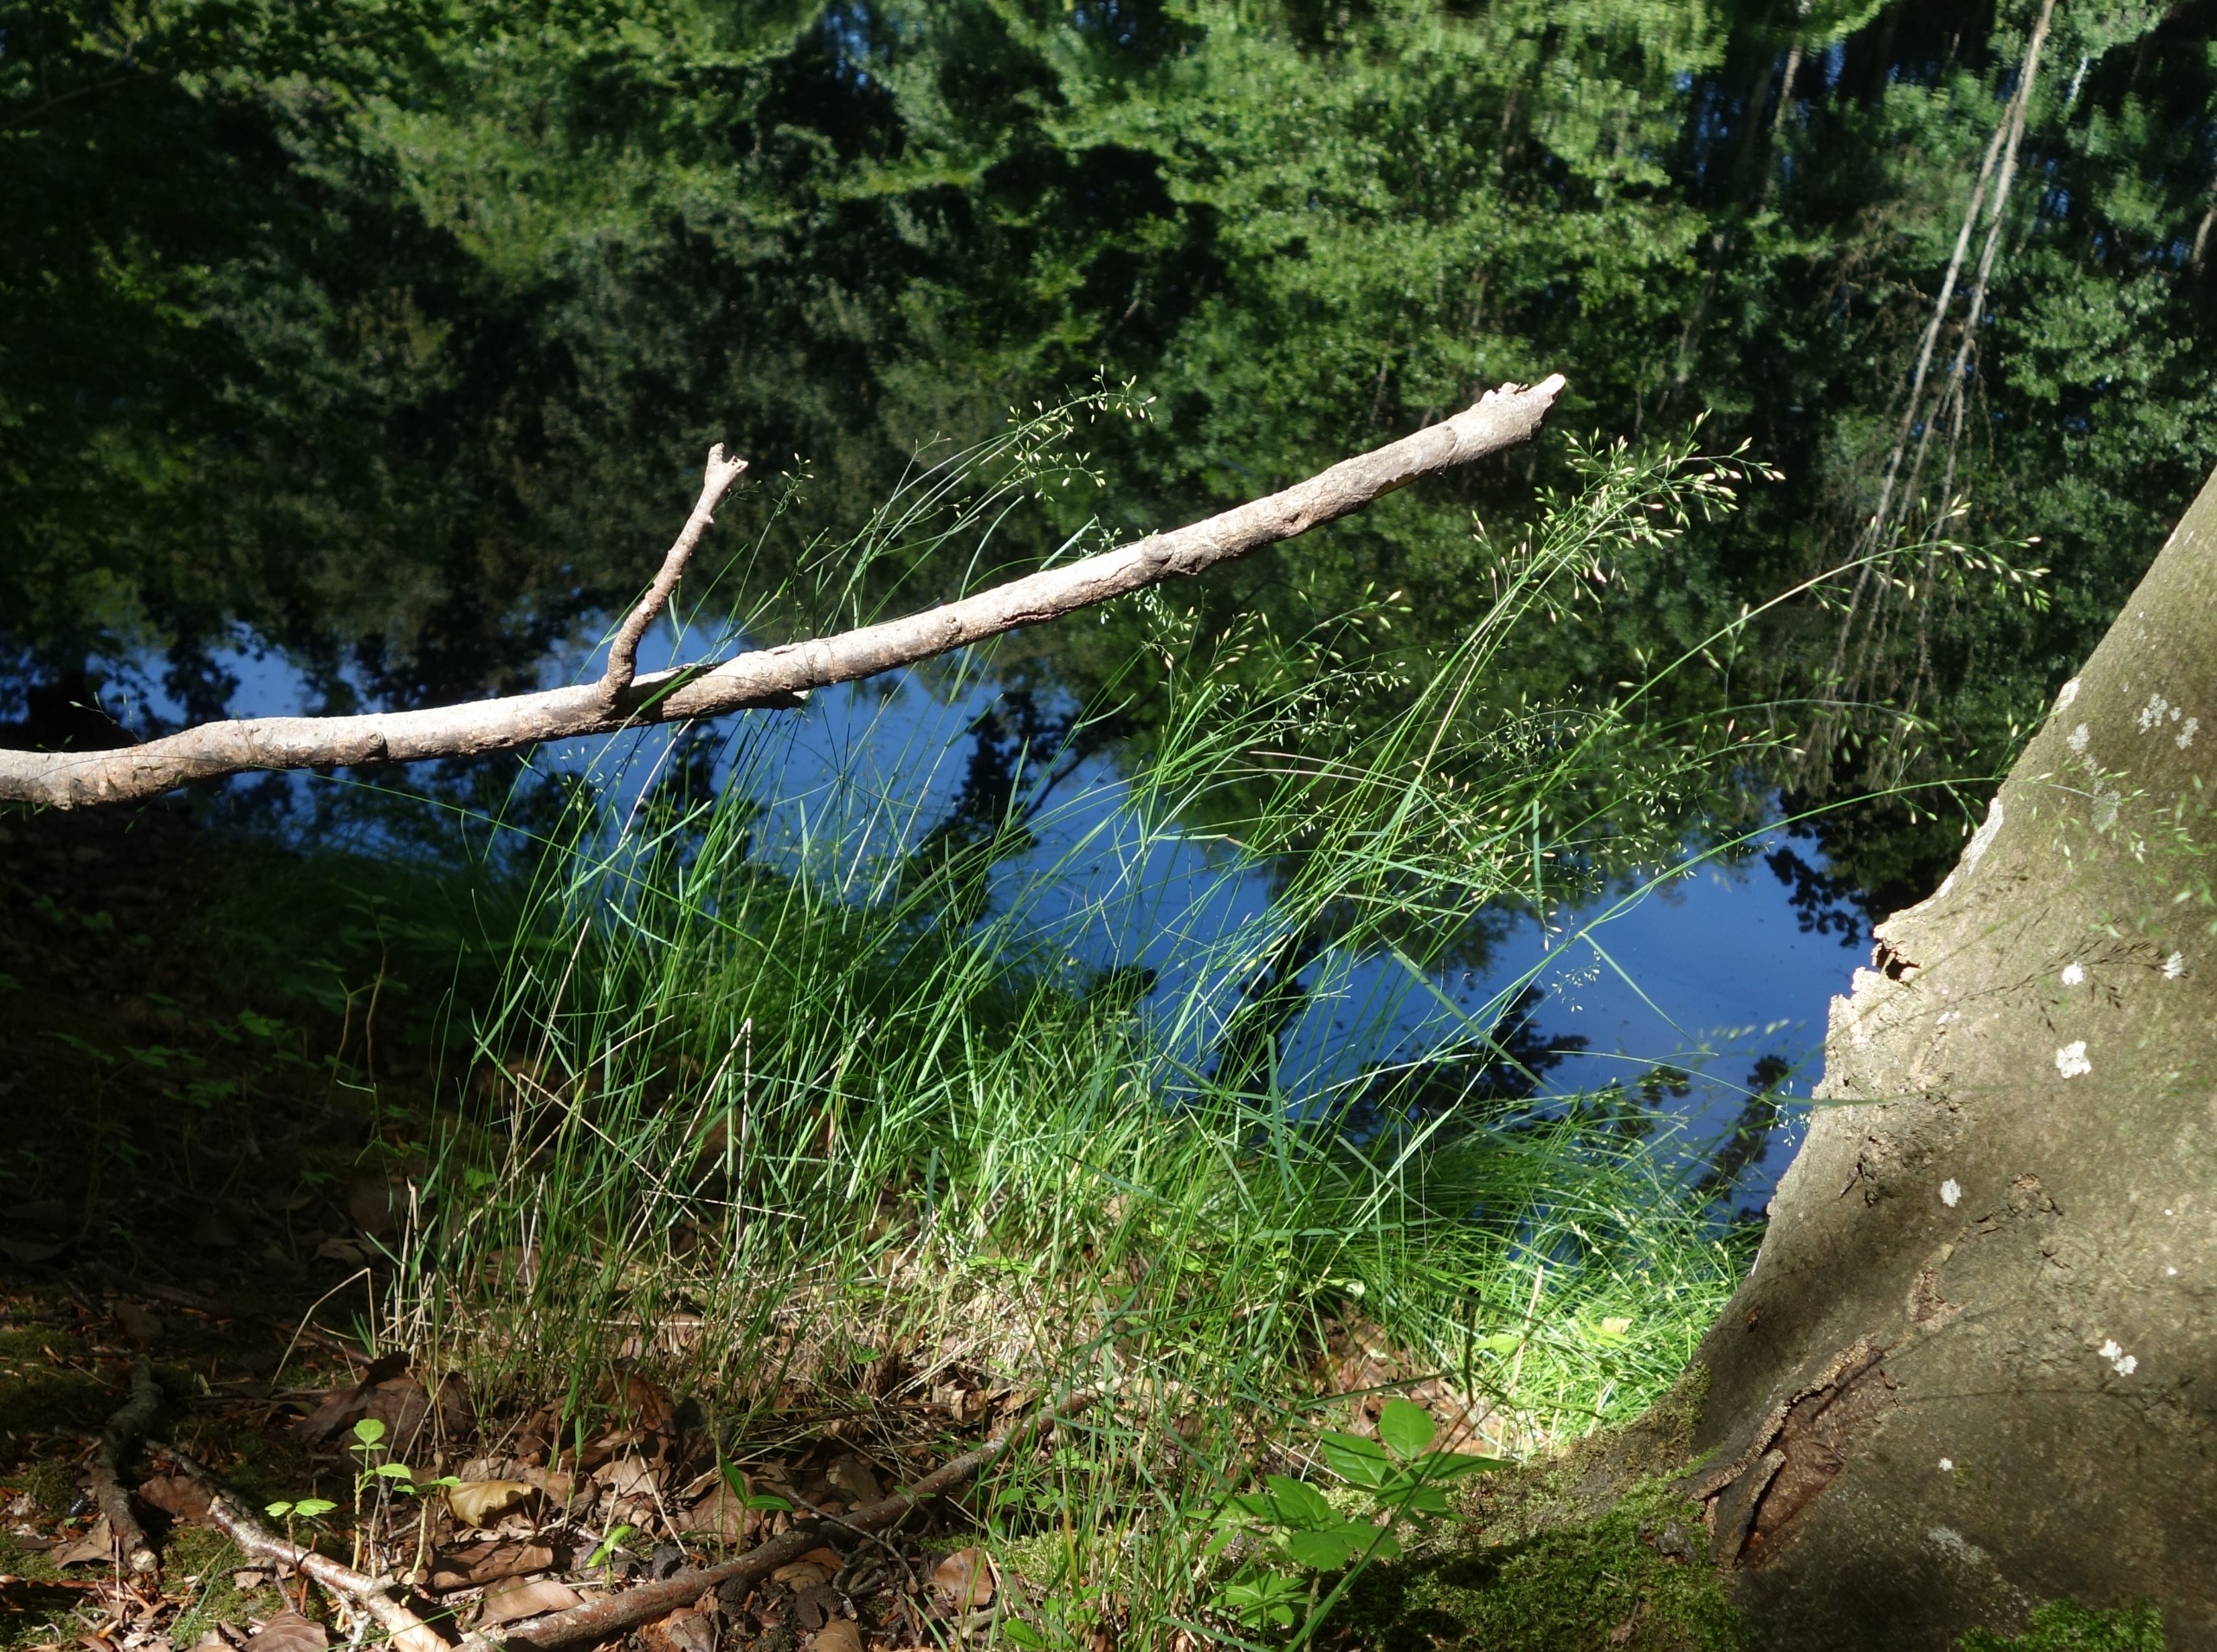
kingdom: Plantae
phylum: Tracheophyta
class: Liliopsida
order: Poales
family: Poaceae
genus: Poa
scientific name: Poa nemoralis
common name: Lund-rapgræs
